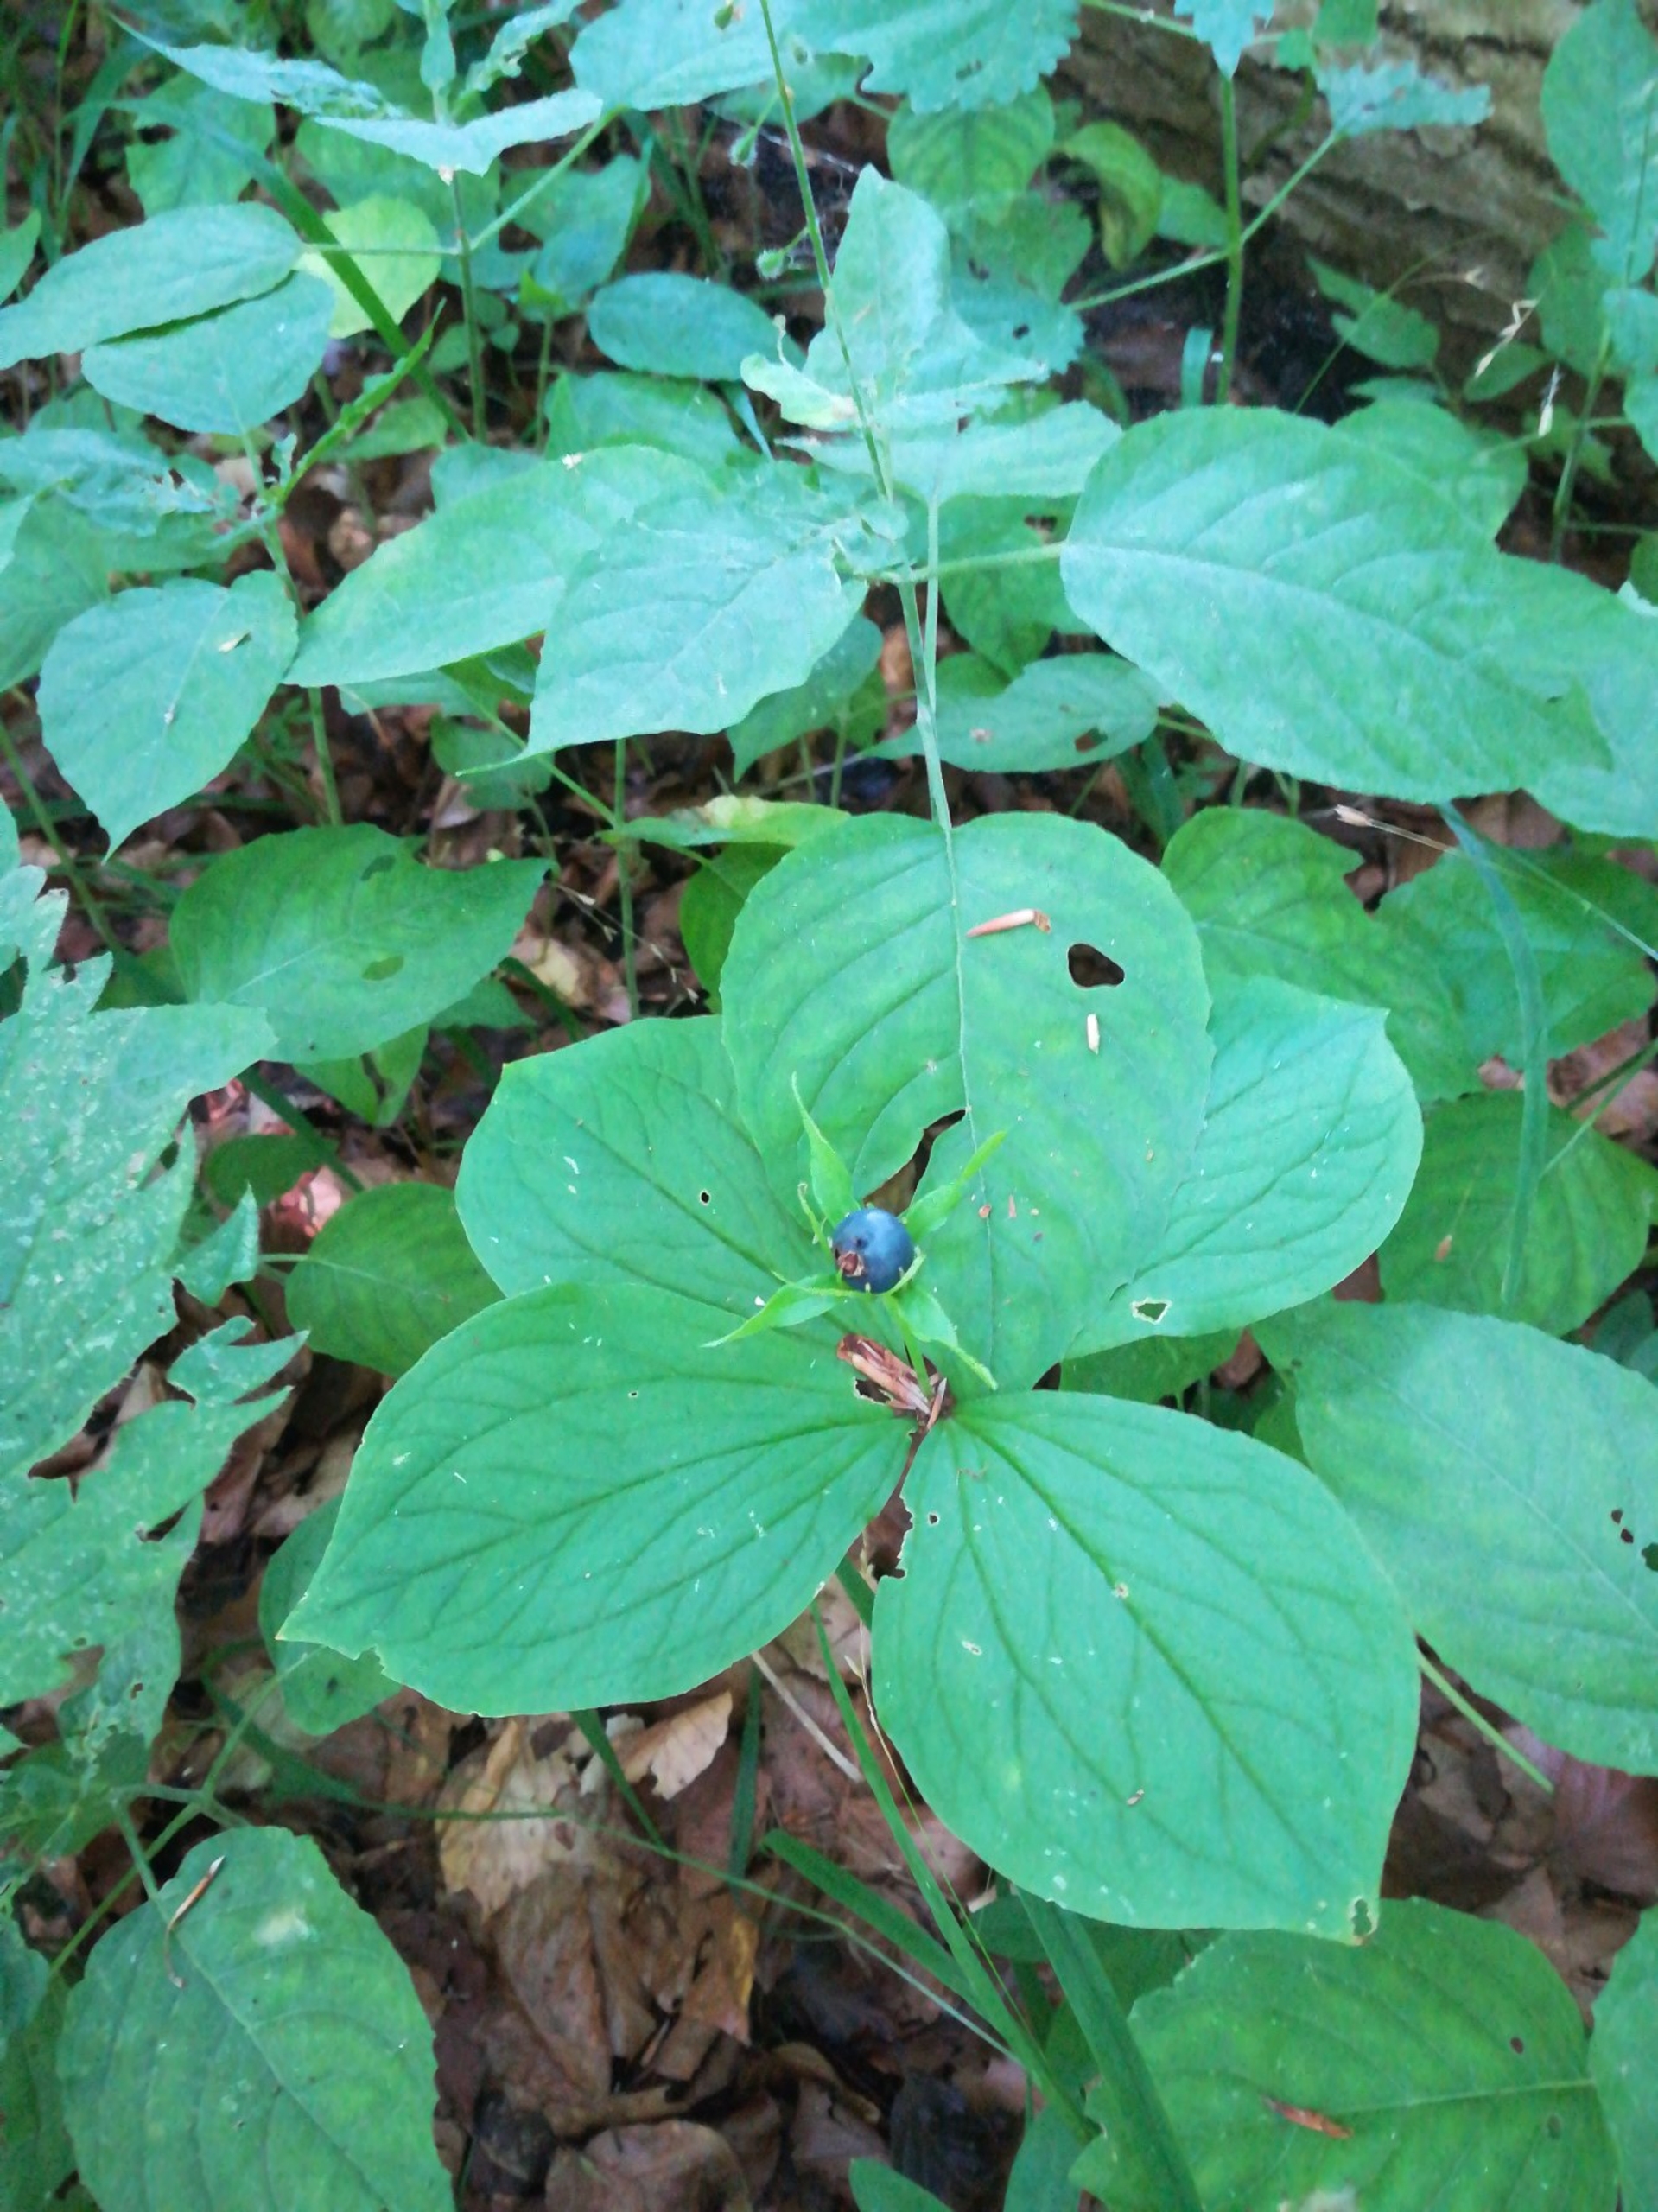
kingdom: Plantae
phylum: Tracheophyta
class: Liliopsida
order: Liliales
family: Melanthiaceae
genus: Paris
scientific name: Paris quadrifolia
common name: Firblad
